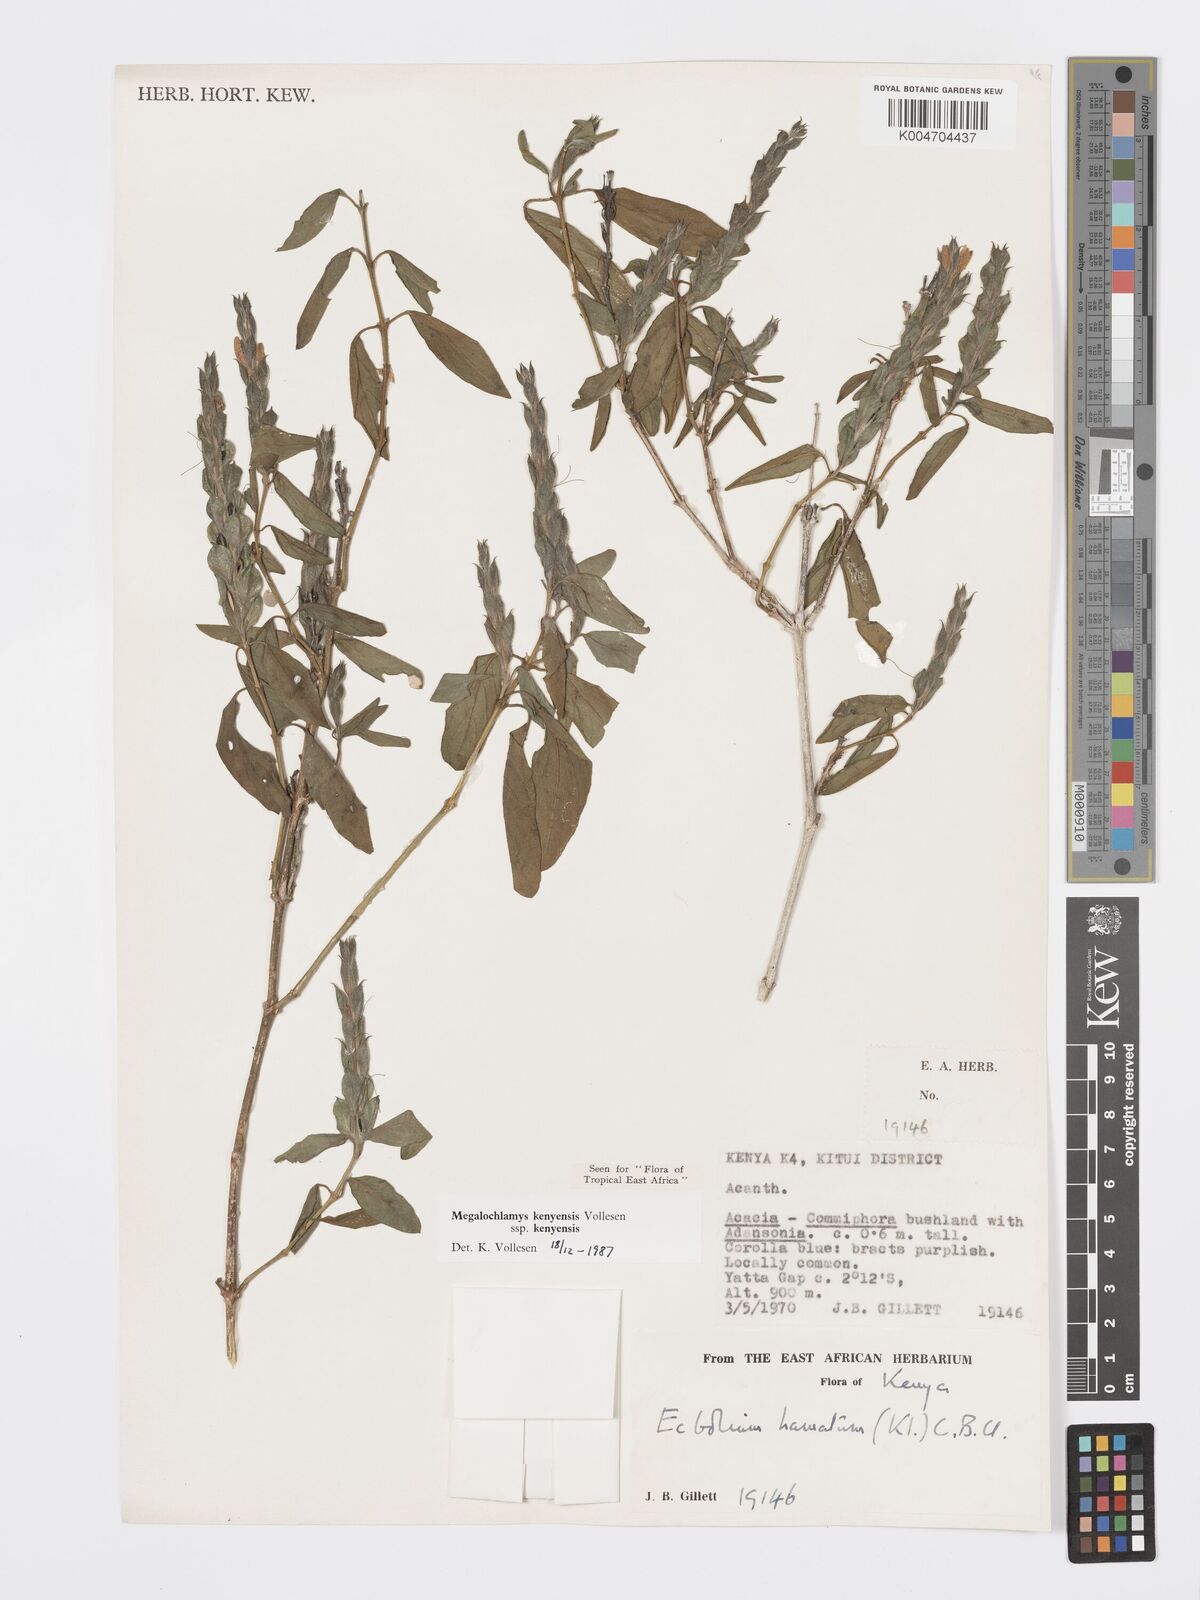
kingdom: Plantae
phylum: Tracheophyta
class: Magnoliopsida
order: Lamiales
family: Acanthaceae
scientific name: Acanthaceae
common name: Acanthaceae
